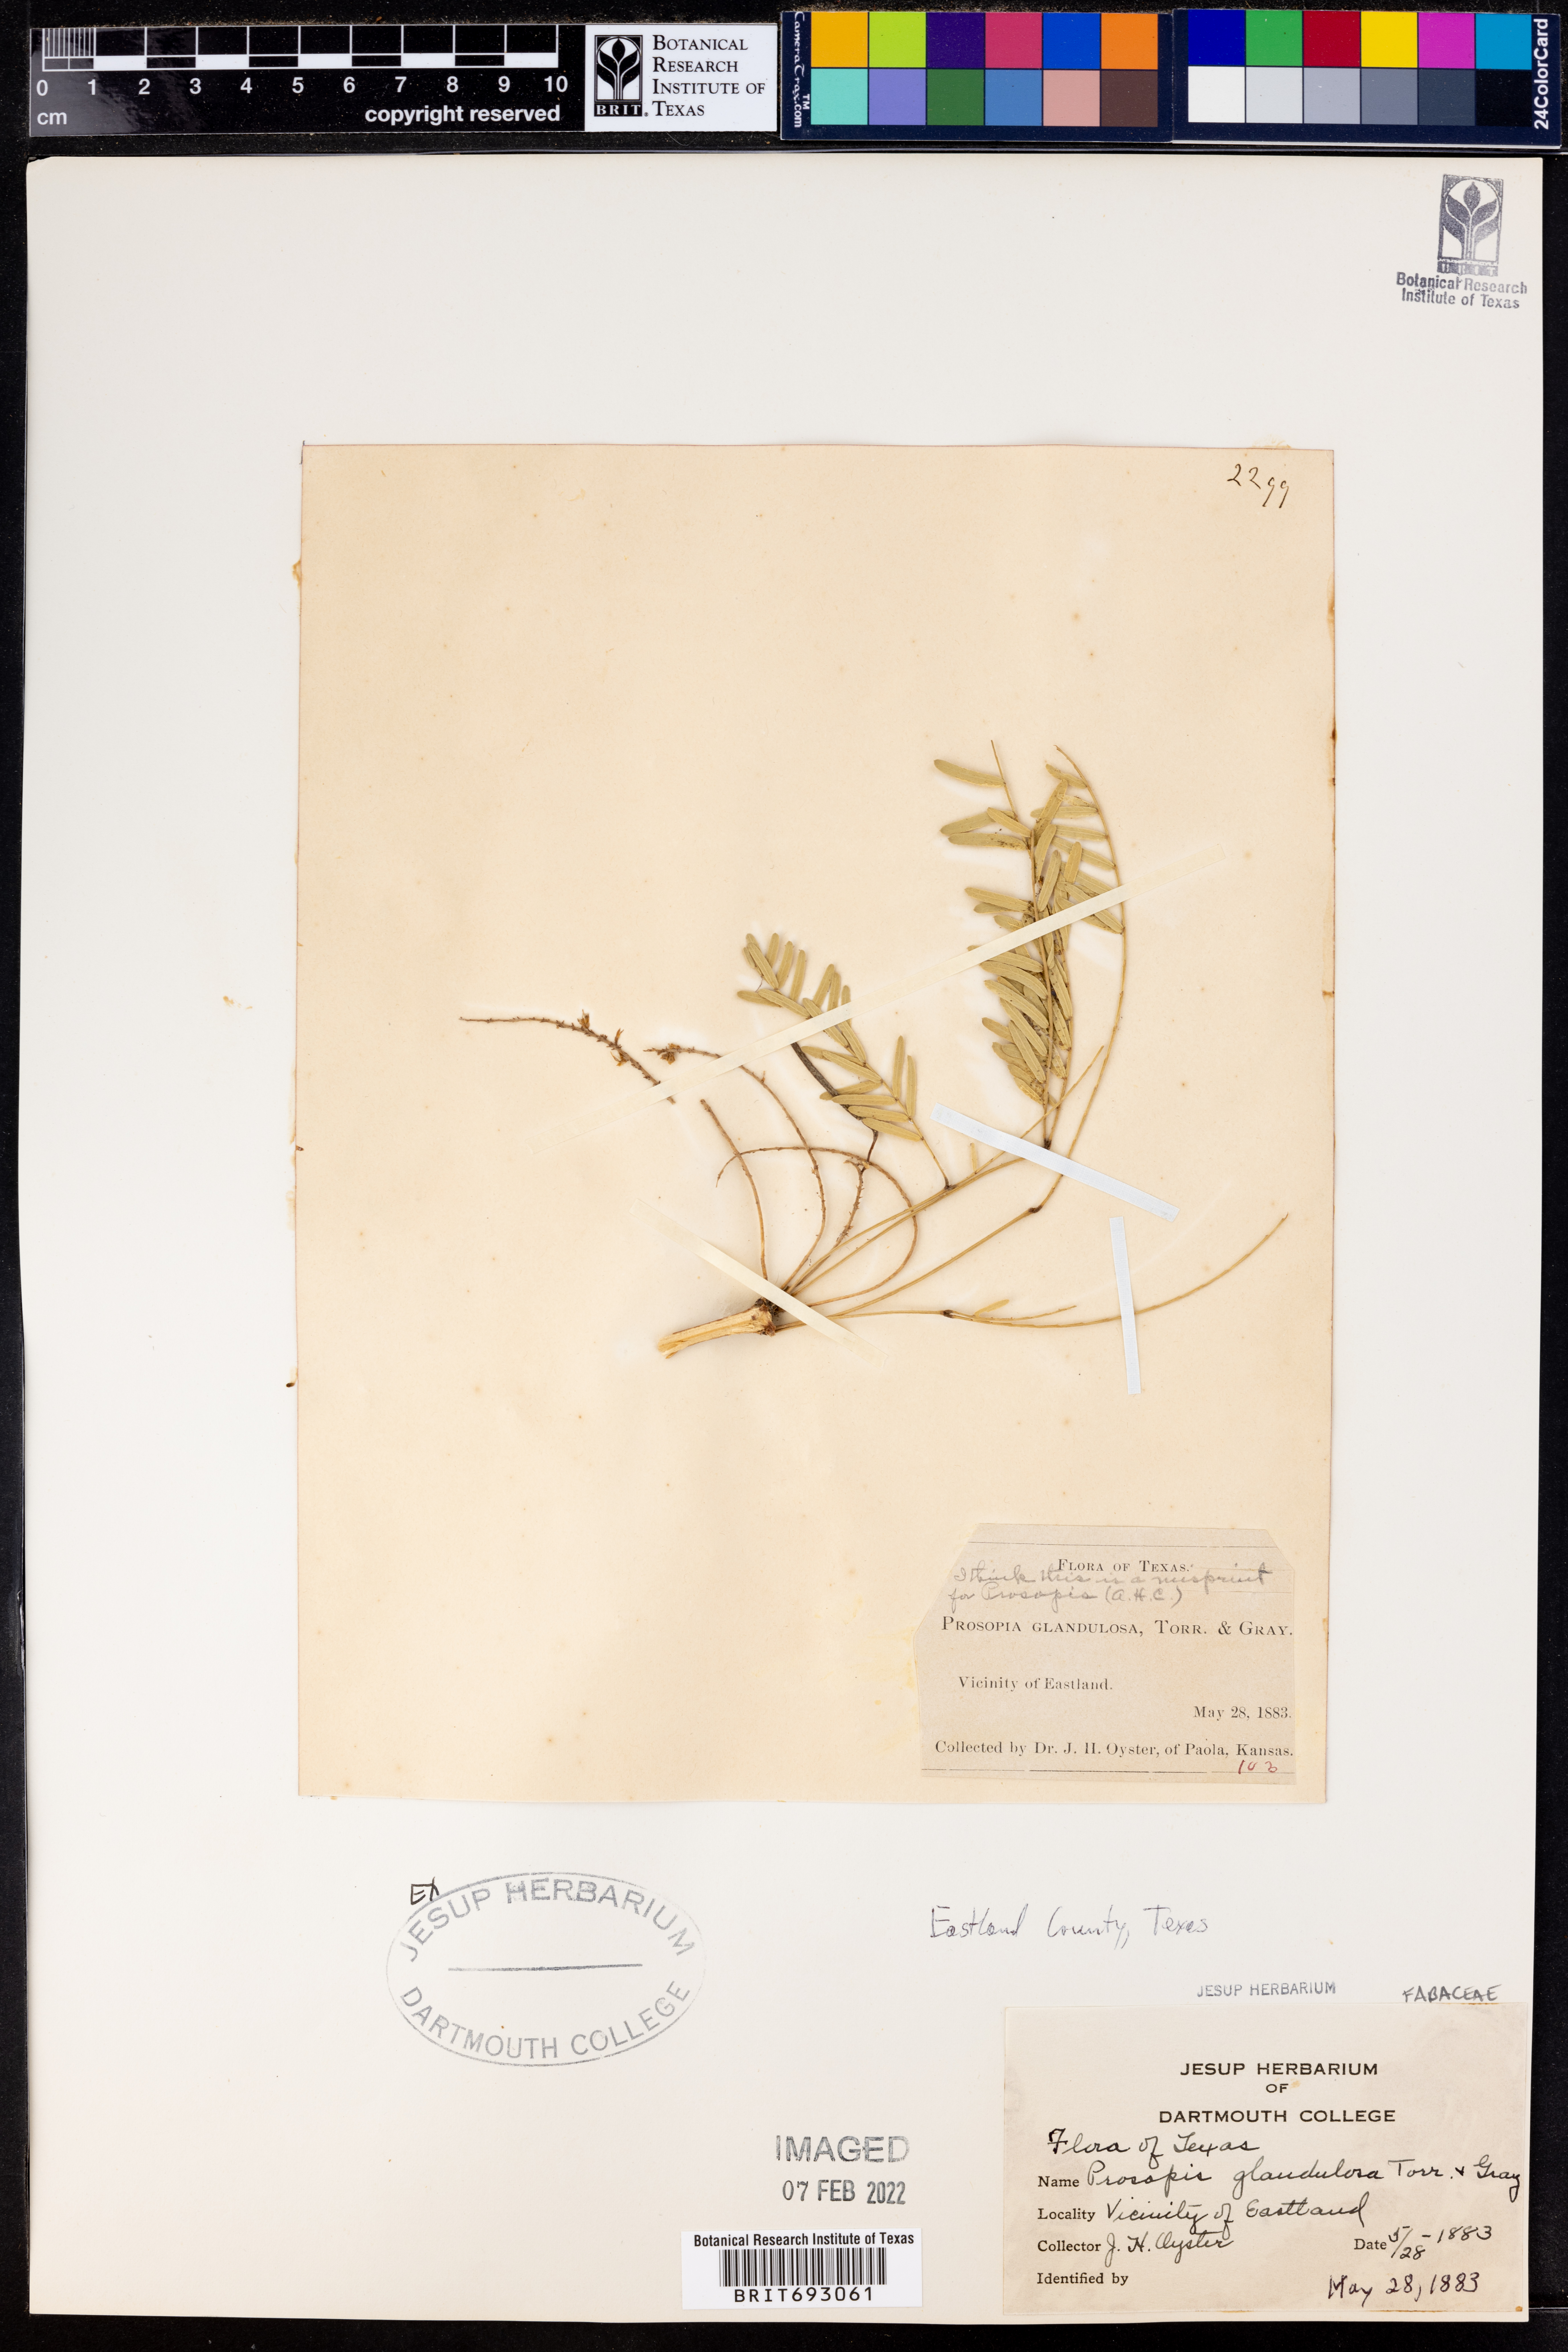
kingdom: Plantae
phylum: Tracheophyta
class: Magnoliopsida
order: Fabales
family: Fabaceae
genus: Prosopis
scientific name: Prosopis glandulosa
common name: Honey mesquite
